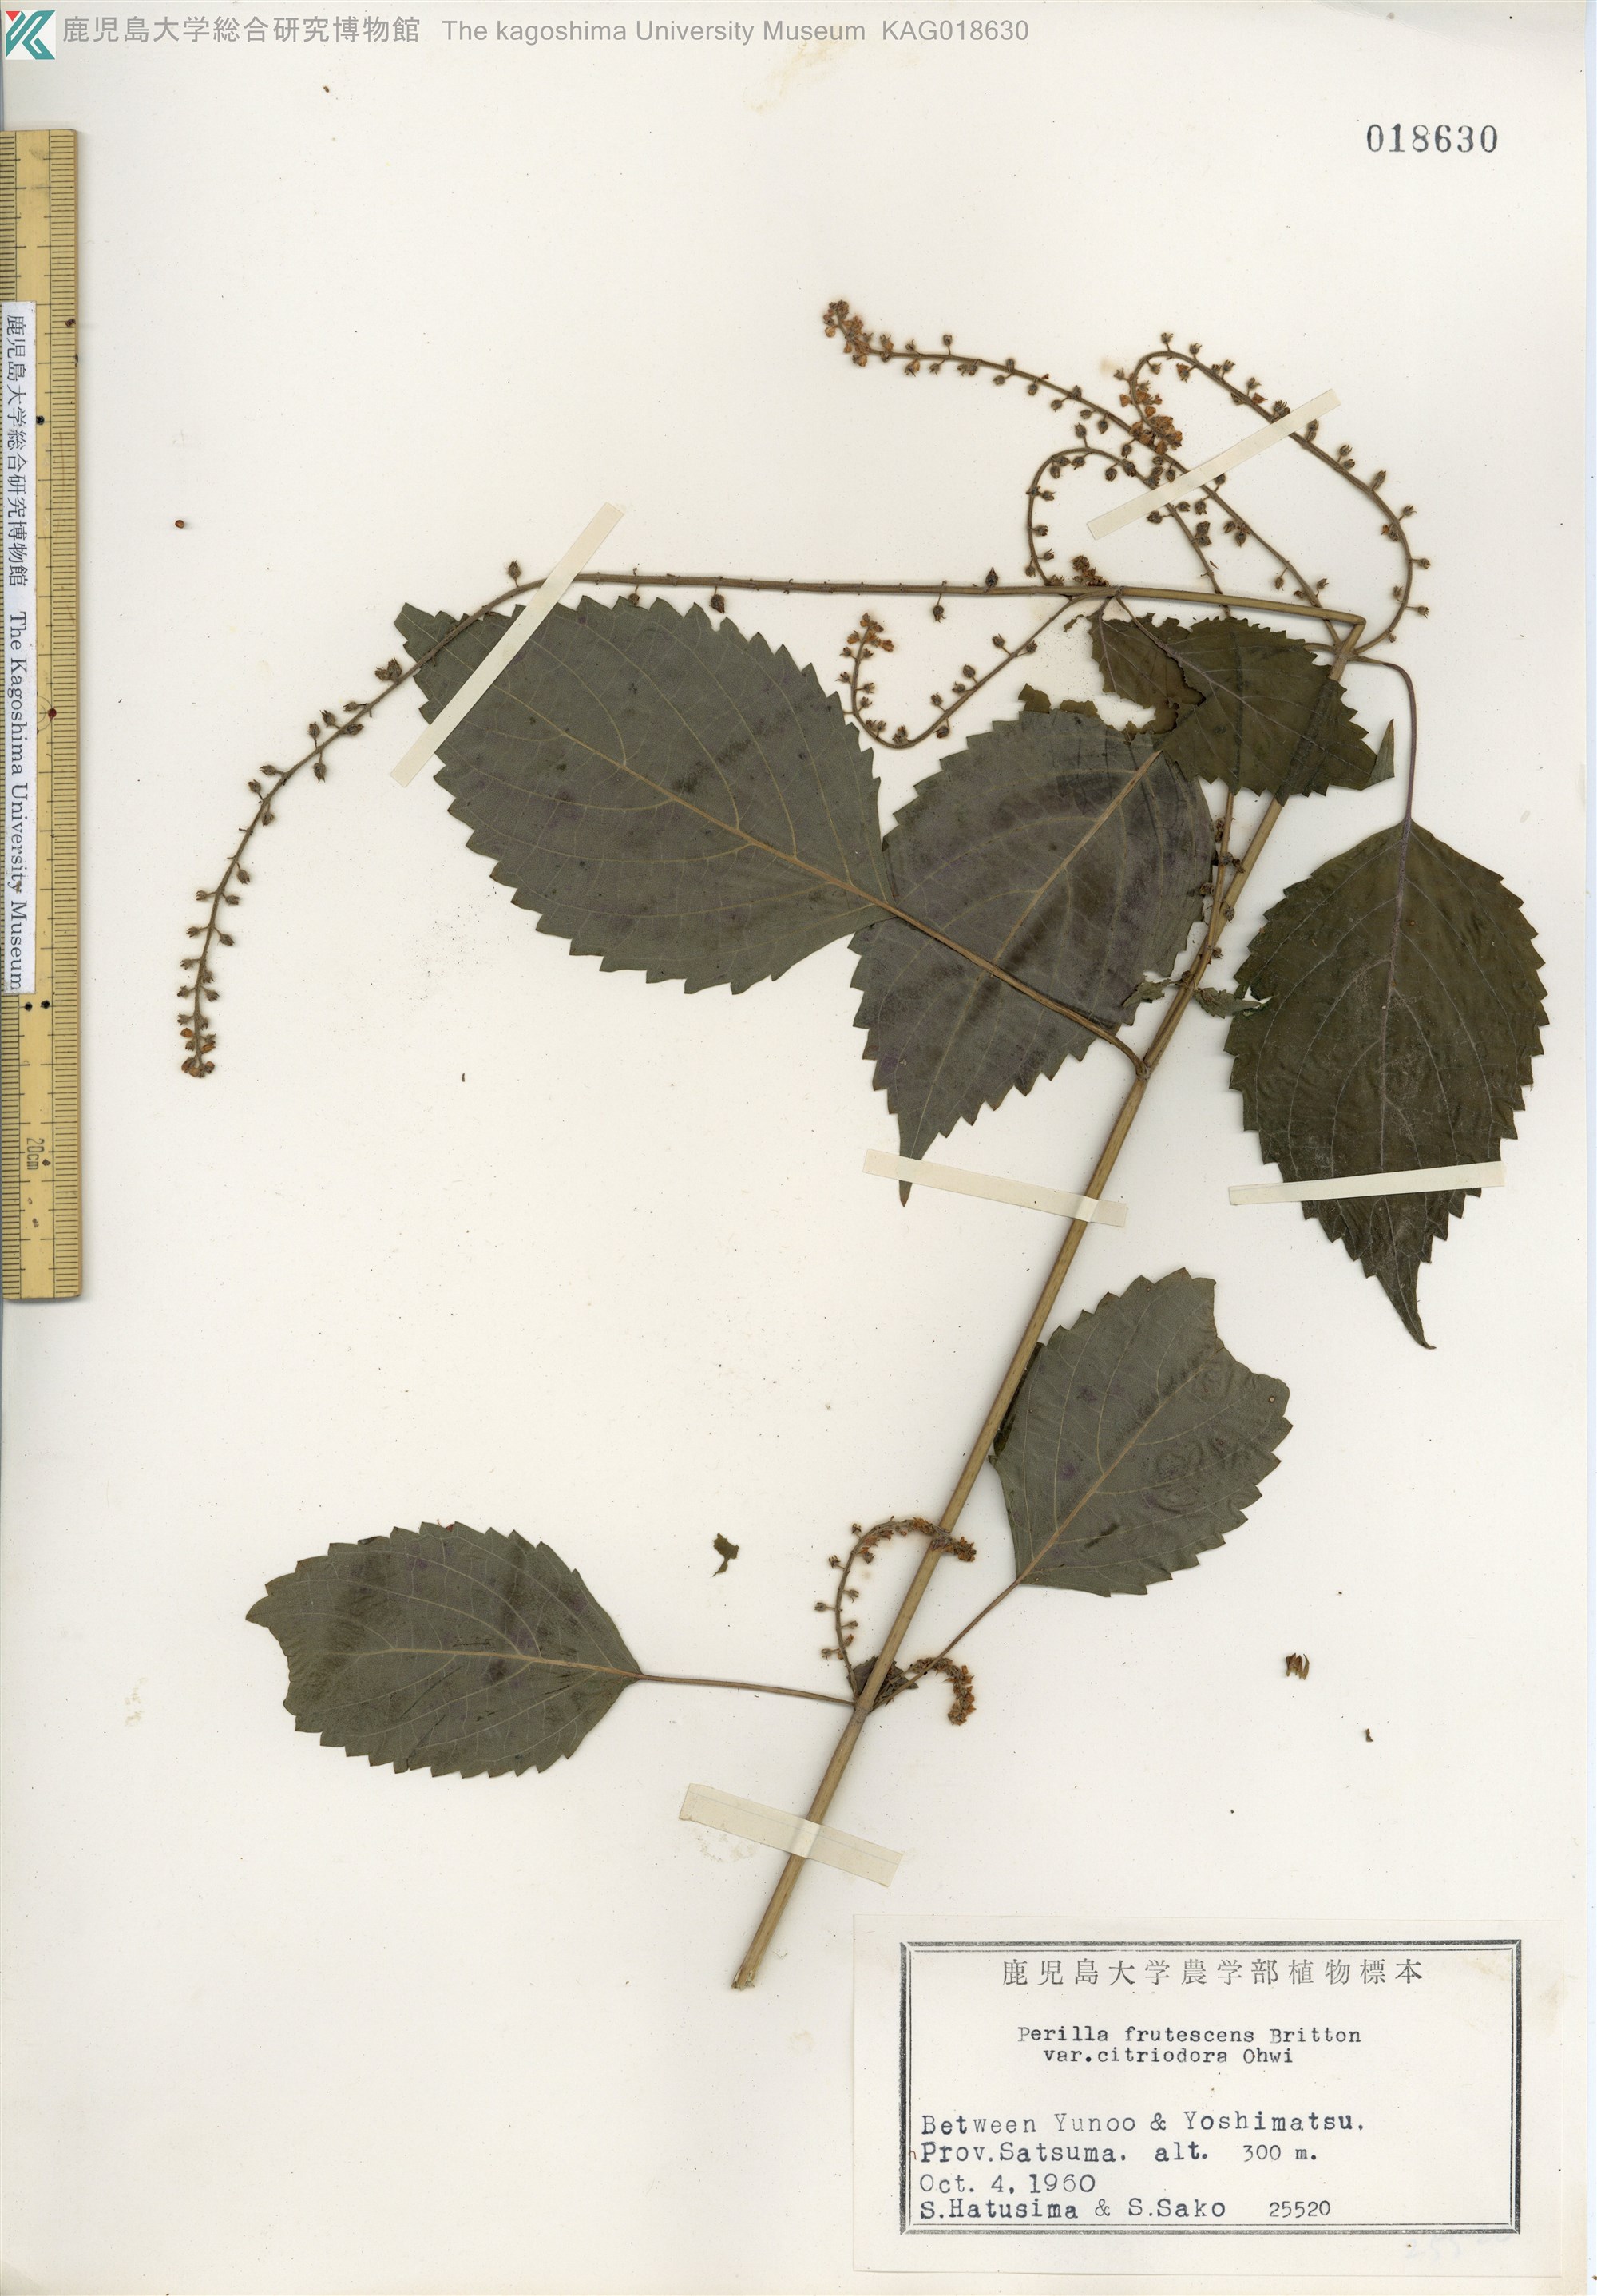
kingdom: Plantae
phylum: Tracheophyta
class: Magnoliopsida
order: Lamiales
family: Lamiaceae
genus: Perilla
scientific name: Perilla frutescens
